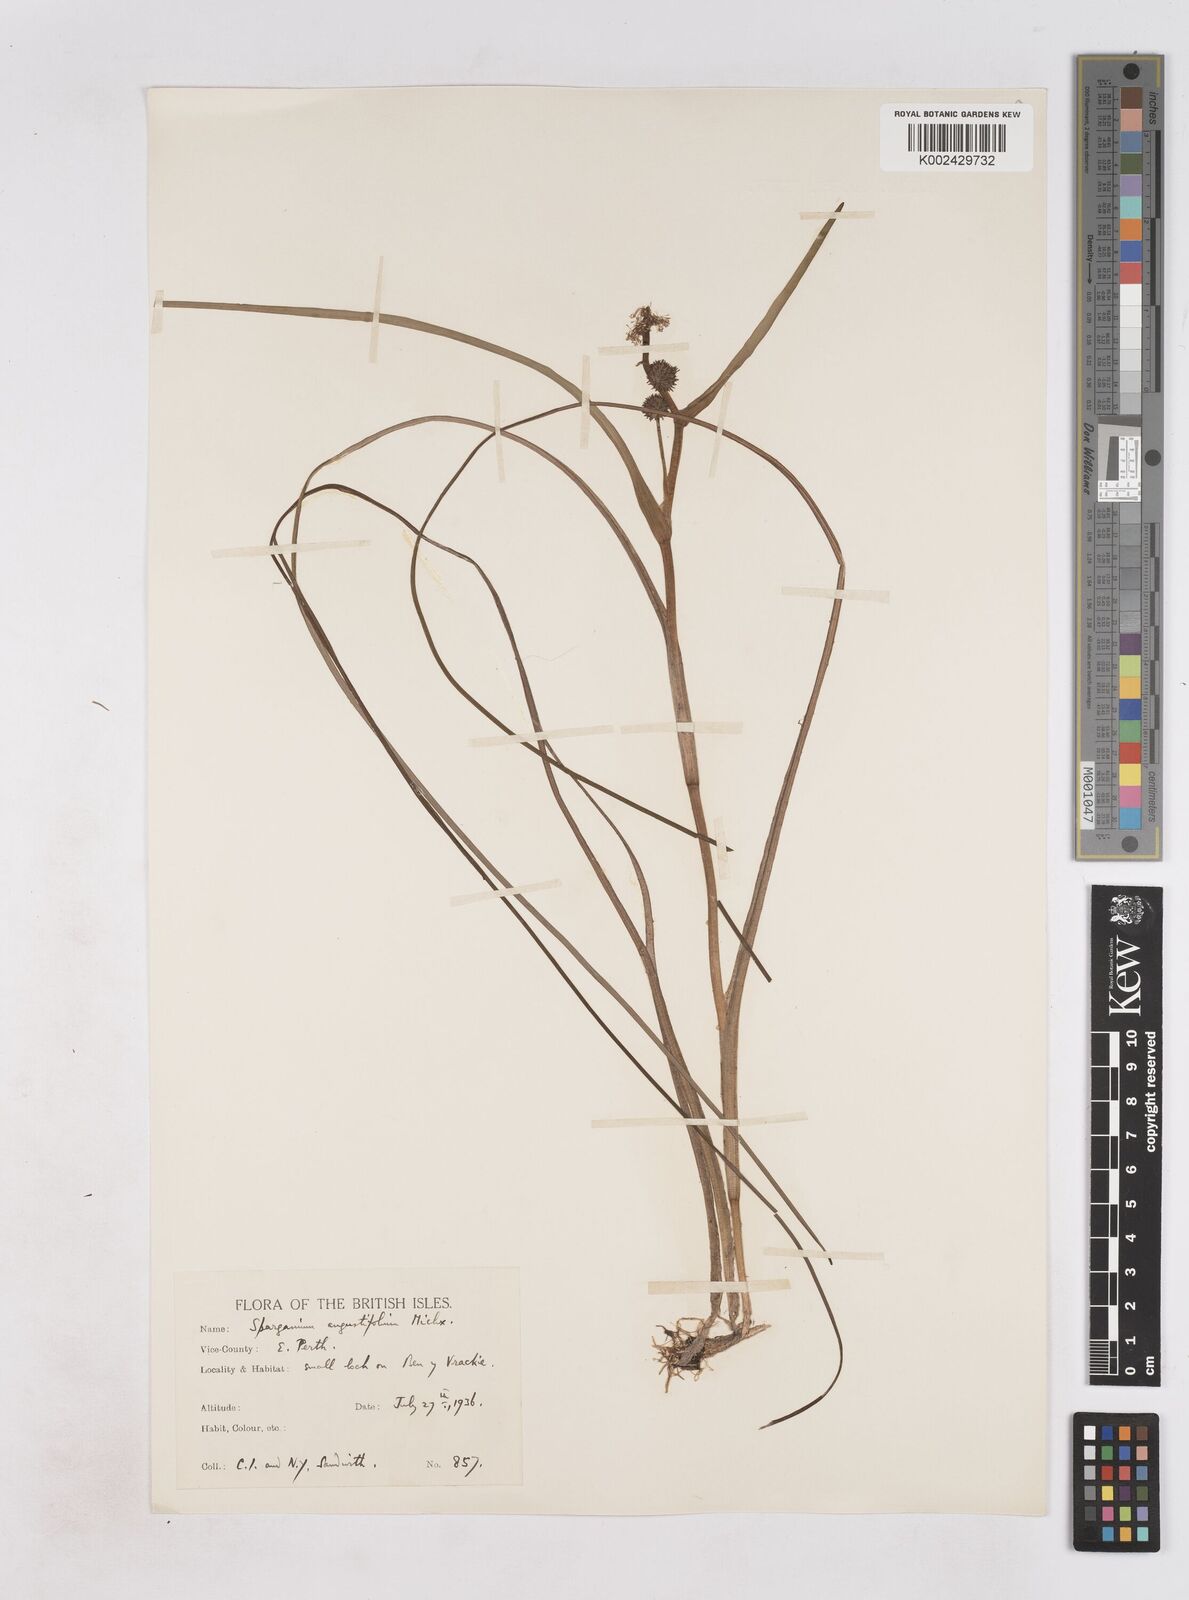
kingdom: Plantae
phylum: Tracheophyta
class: Liliopsida
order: Poales
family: Typhaceae
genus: Sparganium
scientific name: Sparganium angustifolium
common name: Floating bur-reed
